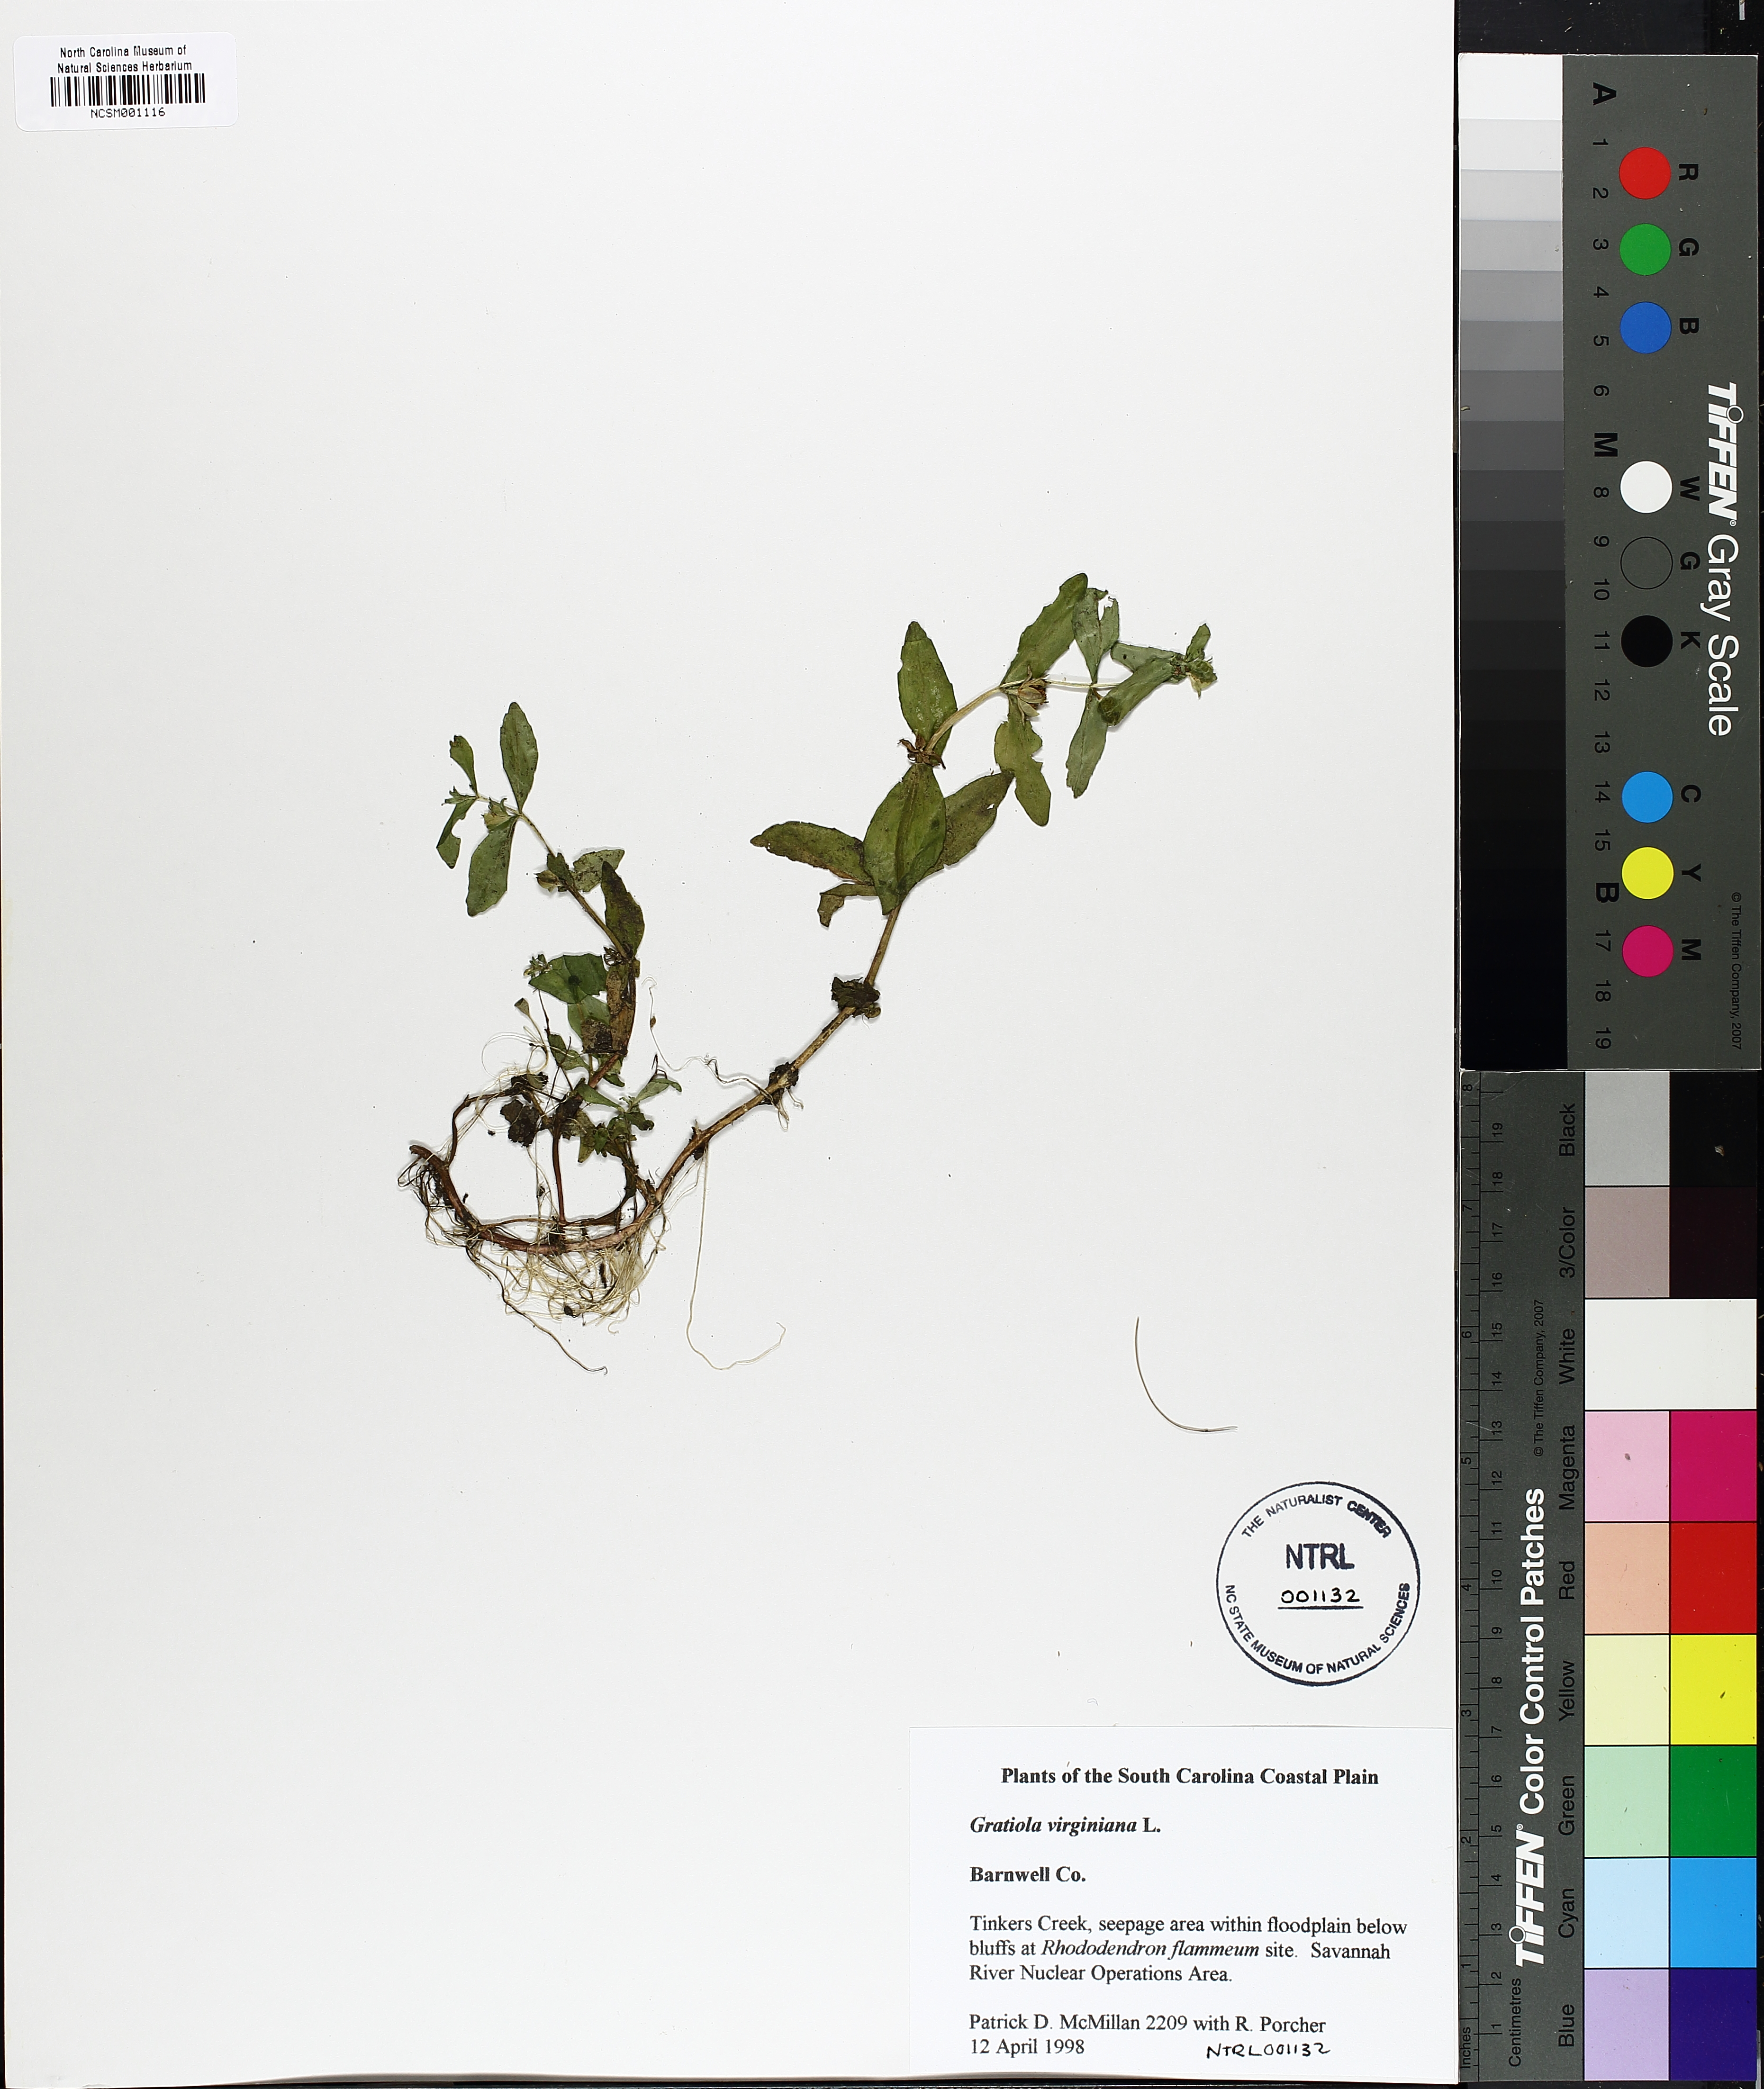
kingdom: Plantae
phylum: Tracheophyta
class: Magnoliopsida
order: Lamiales
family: Plantaginaceae
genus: Gratiola
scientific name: Gratiola virginiana
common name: Roundfruit hedgehyssop
